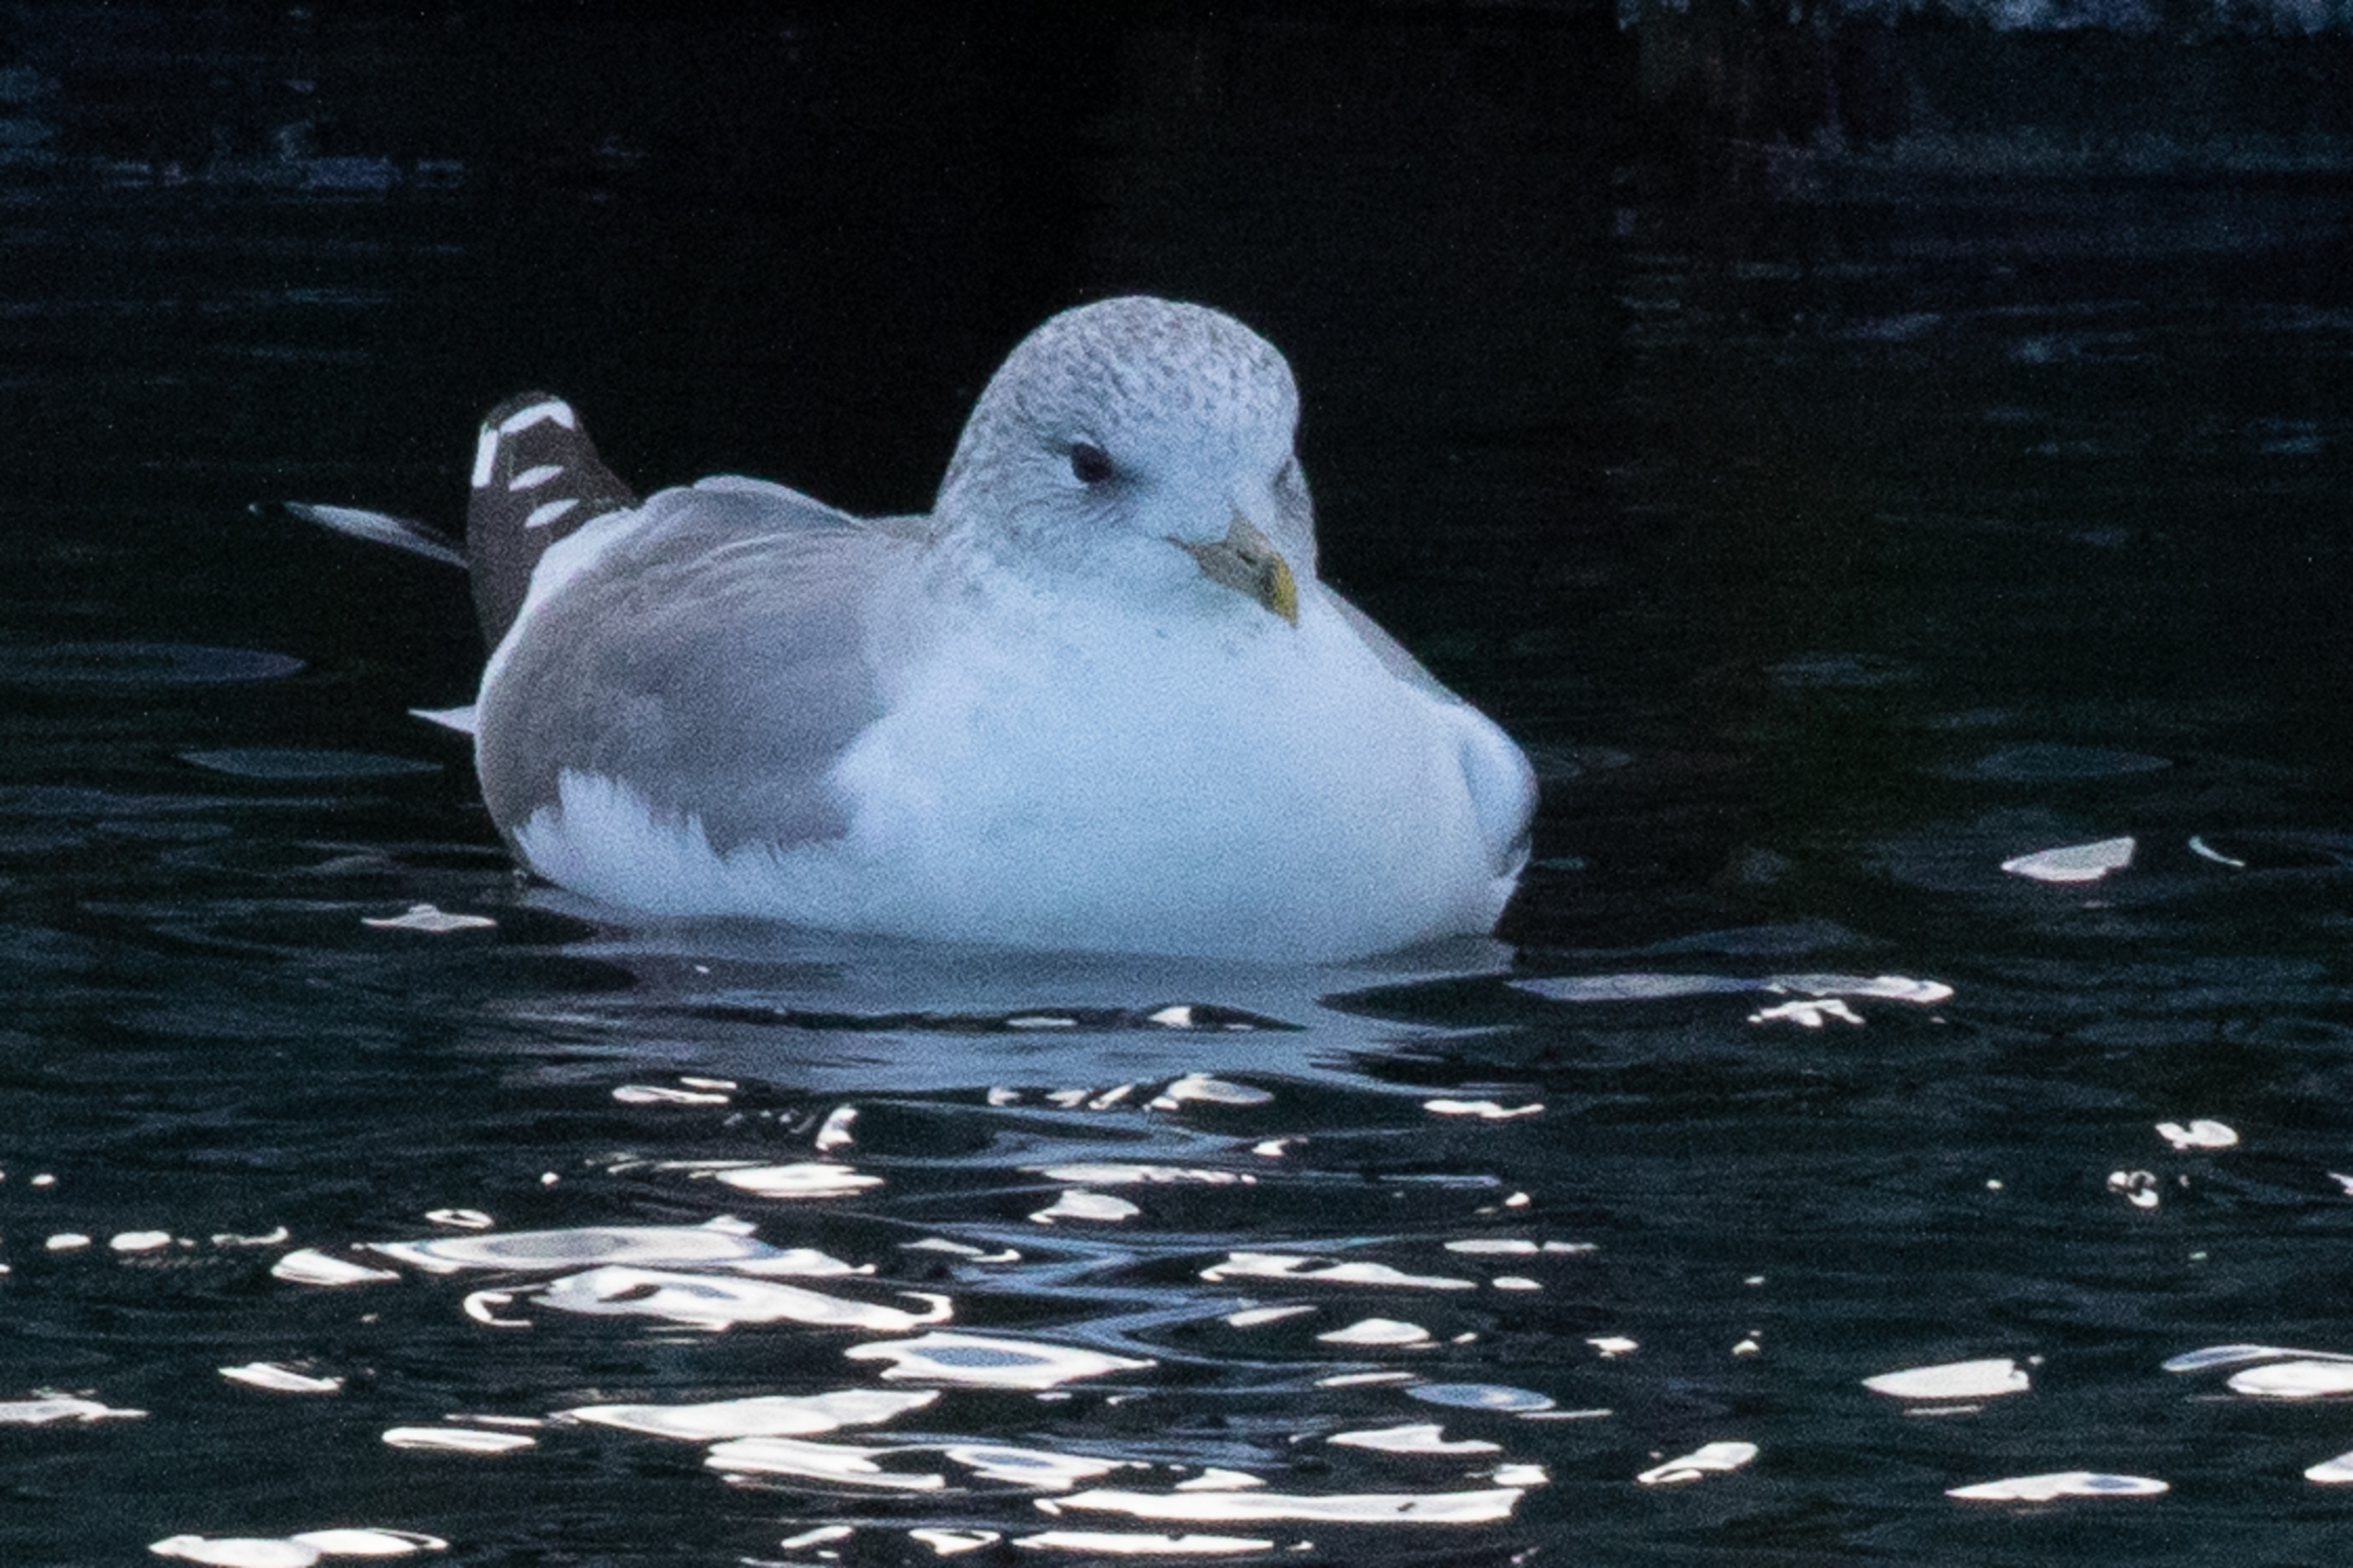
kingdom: Animalia
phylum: Chordata
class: Aves
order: Charadriiformes
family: Laridae
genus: Larus
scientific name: Larus canus
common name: Stormmåge
